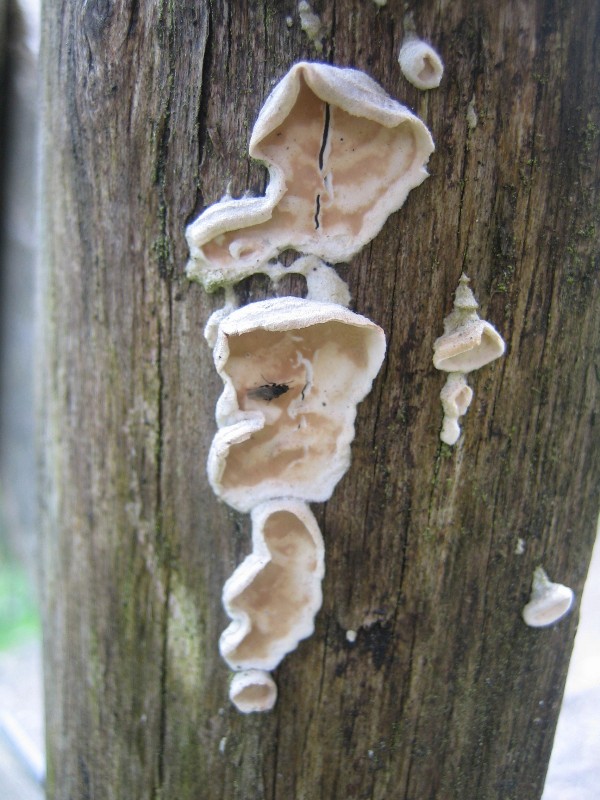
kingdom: Fungi
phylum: Basidiomycota
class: Agaricomycetes
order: Polyporales
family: Irpicaceae
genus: Byssomerulius
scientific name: Byssomerulius corium
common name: læder-åresvamp
